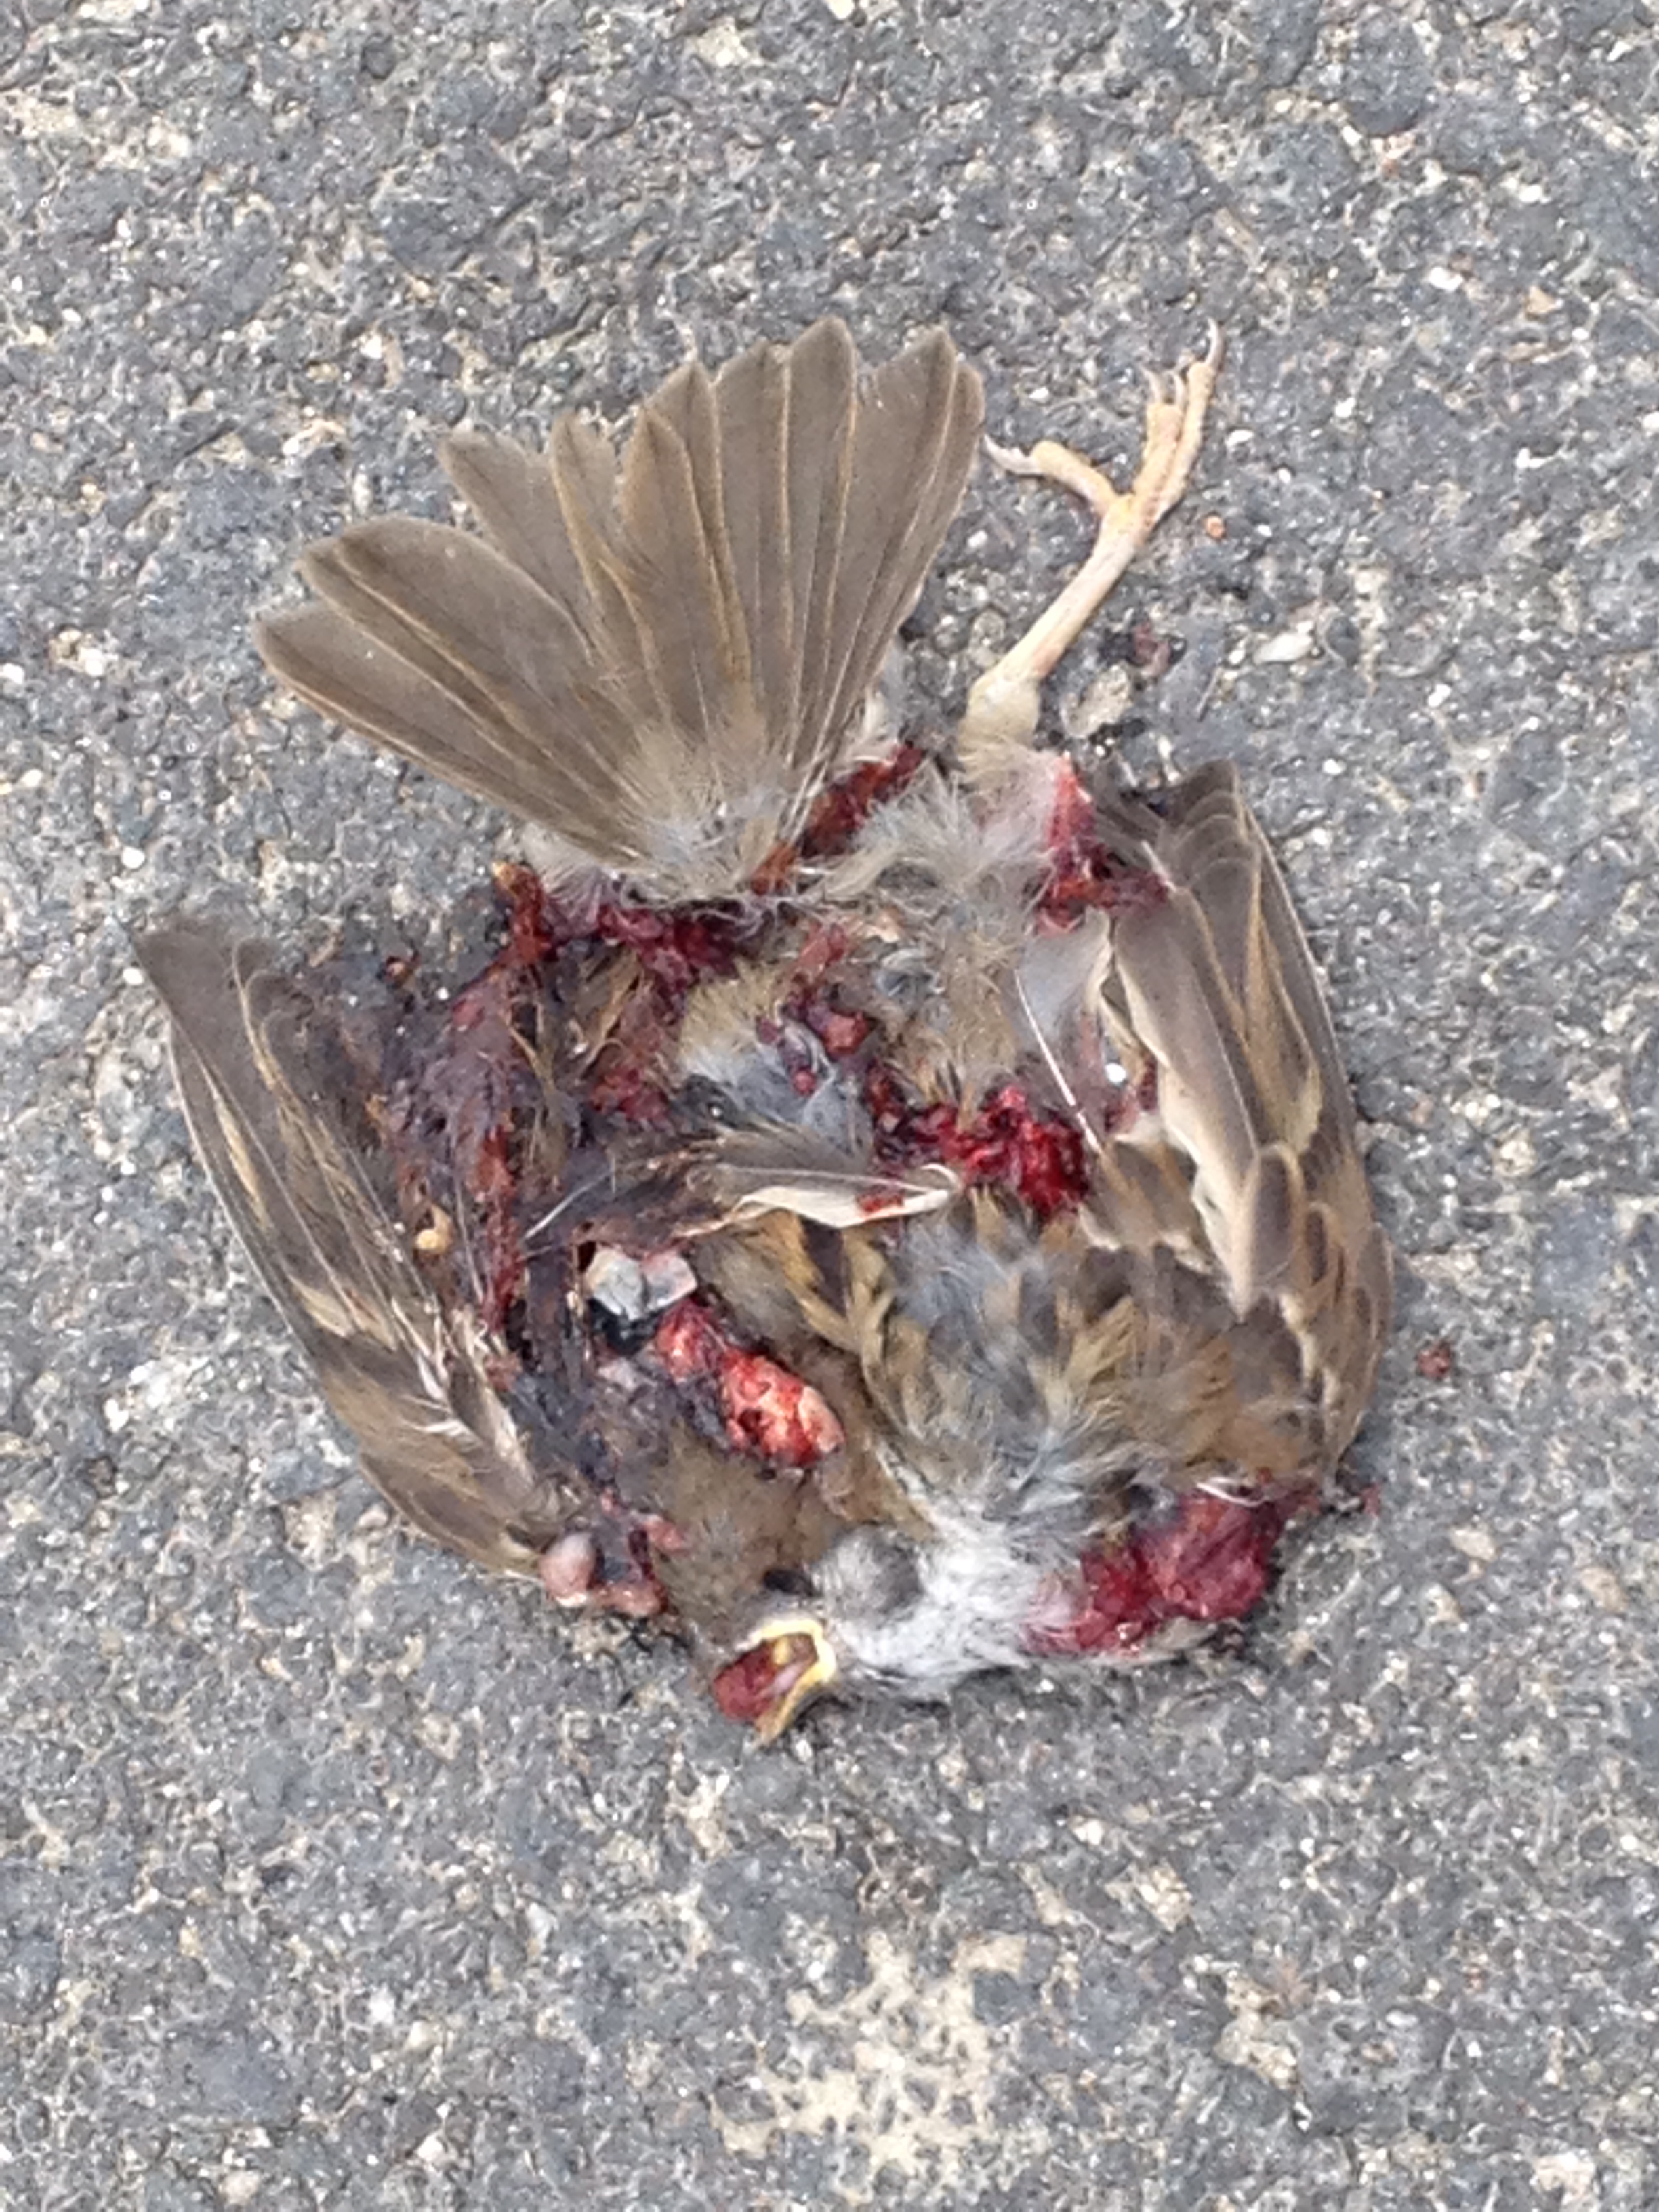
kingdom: Animalia
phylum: Chordata
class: Aves
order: Passeriformes
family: Passeridae
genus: Passer
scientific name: Passer montanus
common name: Eurasian tree sparrow
